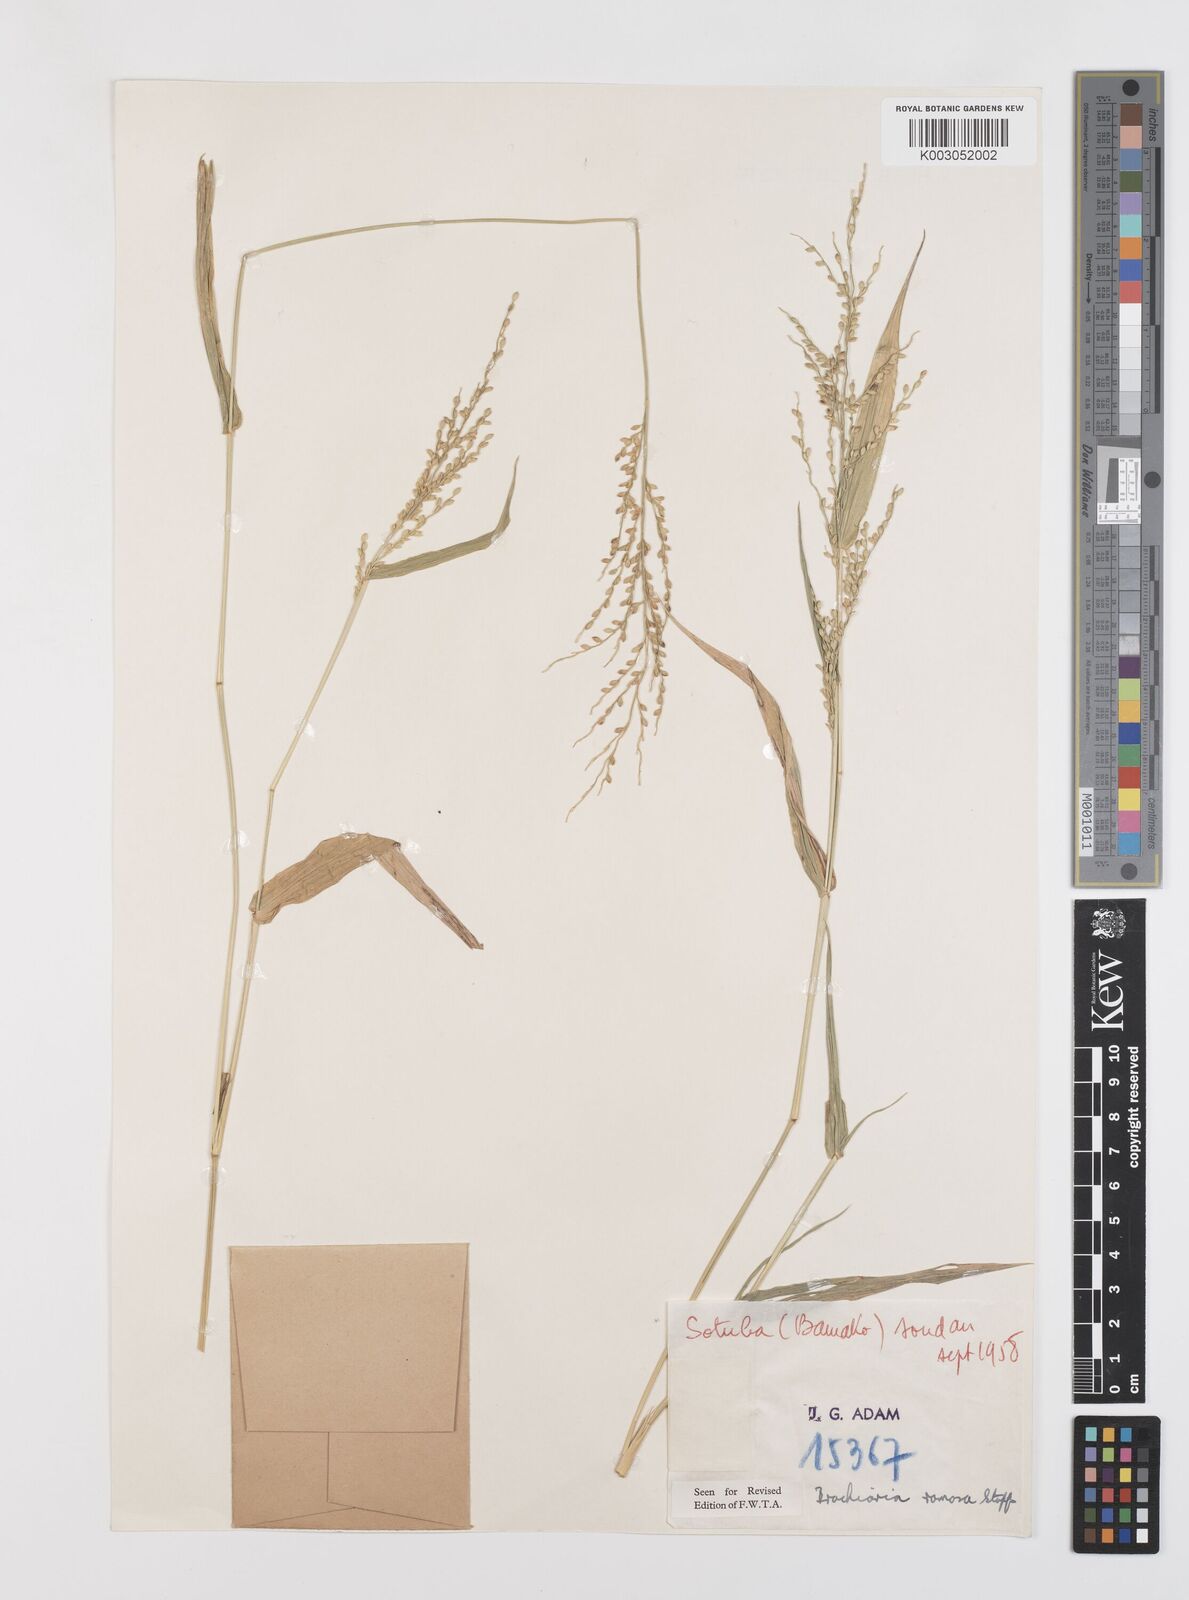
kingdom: Plantae
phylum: Tracheophyta
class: Liliopsida
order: Poales
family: Poaceae
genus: Urochloa
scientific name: Urochloa ramosa
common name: Browntop millet
